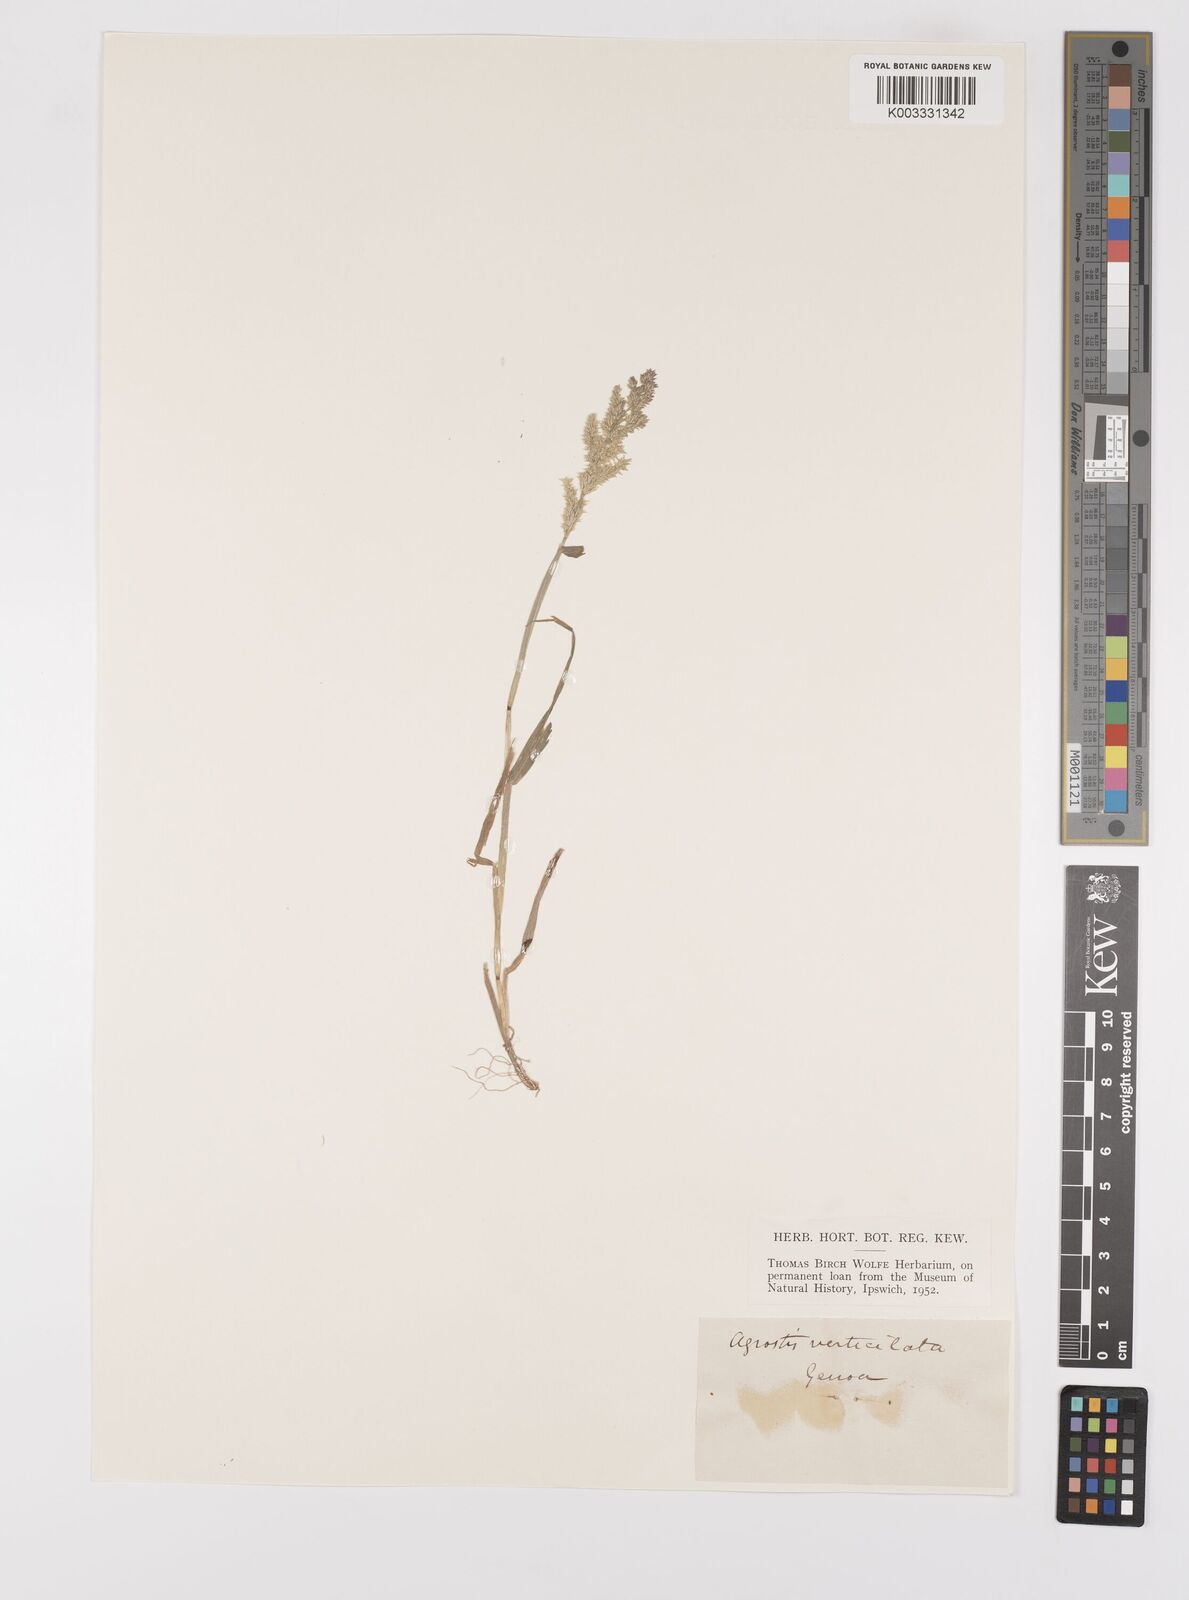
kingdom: Plantae
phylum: Tracheophyta
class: Liliopsida
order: Poales
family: Poaceae
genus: Polypogon
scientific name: Polypogon viridis
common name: Water bent
